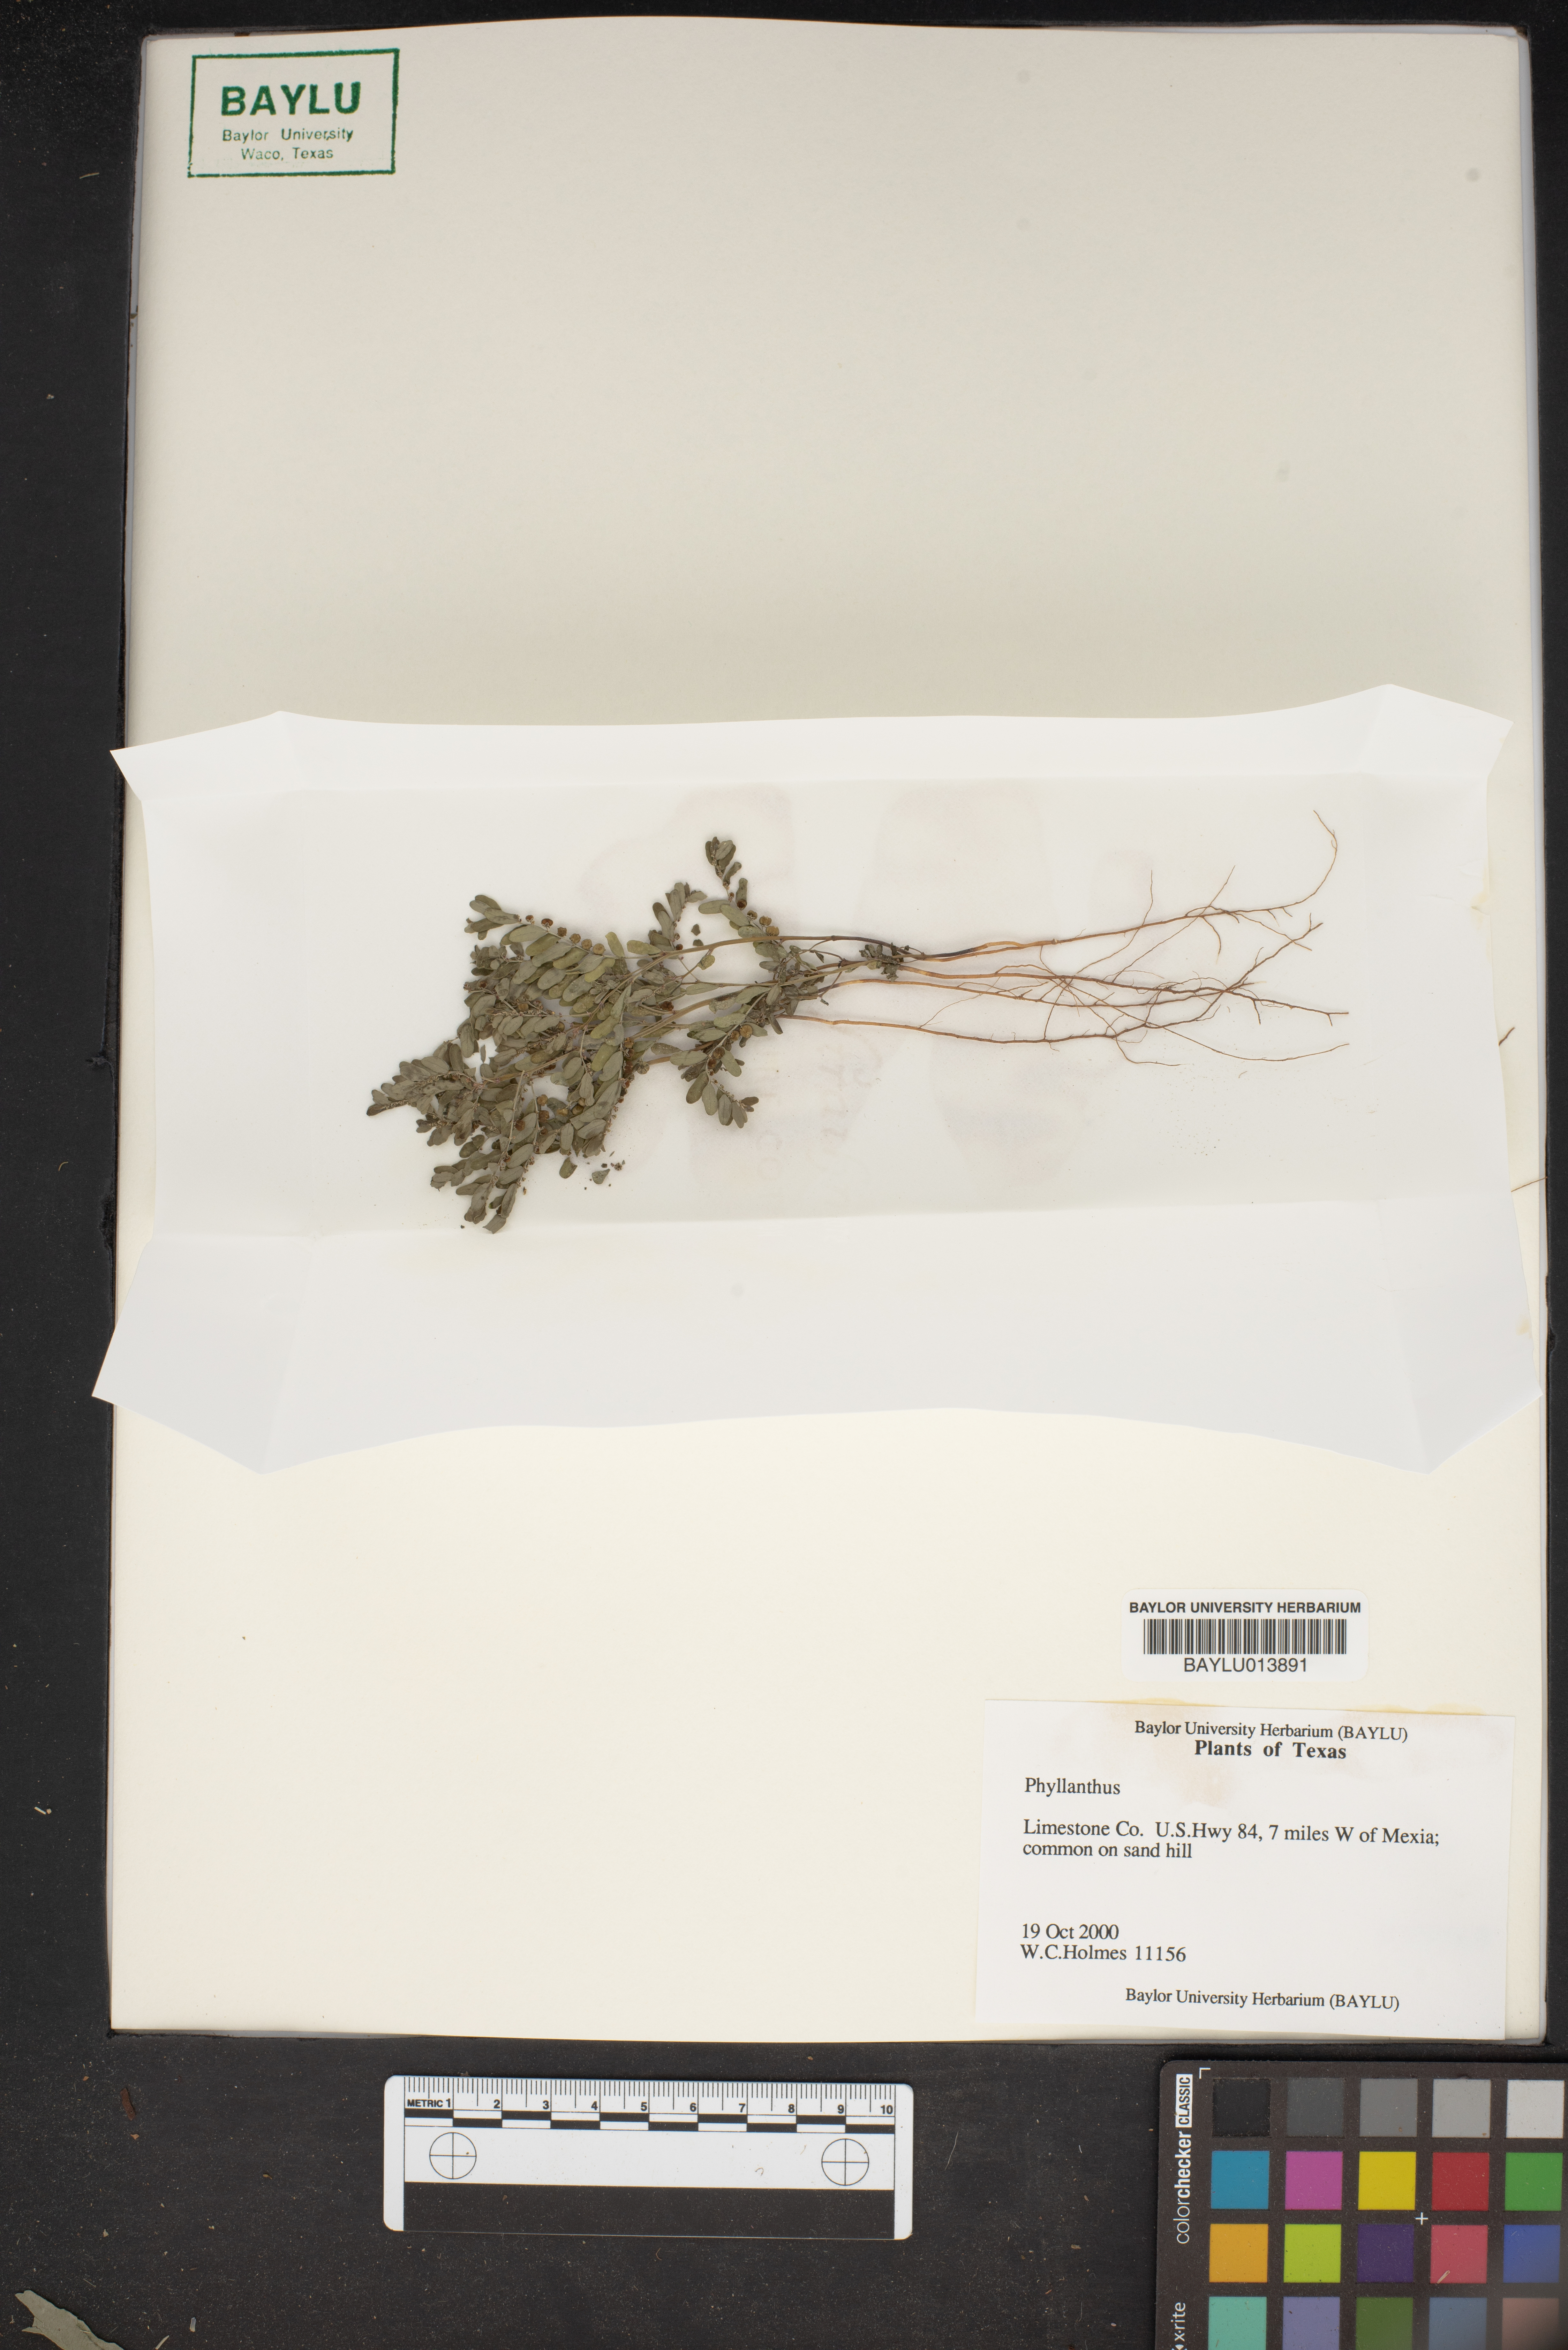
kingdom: Plantae
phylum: Tracheophyta
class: Magnoliopsida
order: Malpighiales
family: Phyllanthaceae
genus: Phyllanthus
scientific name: Phyllanthus
